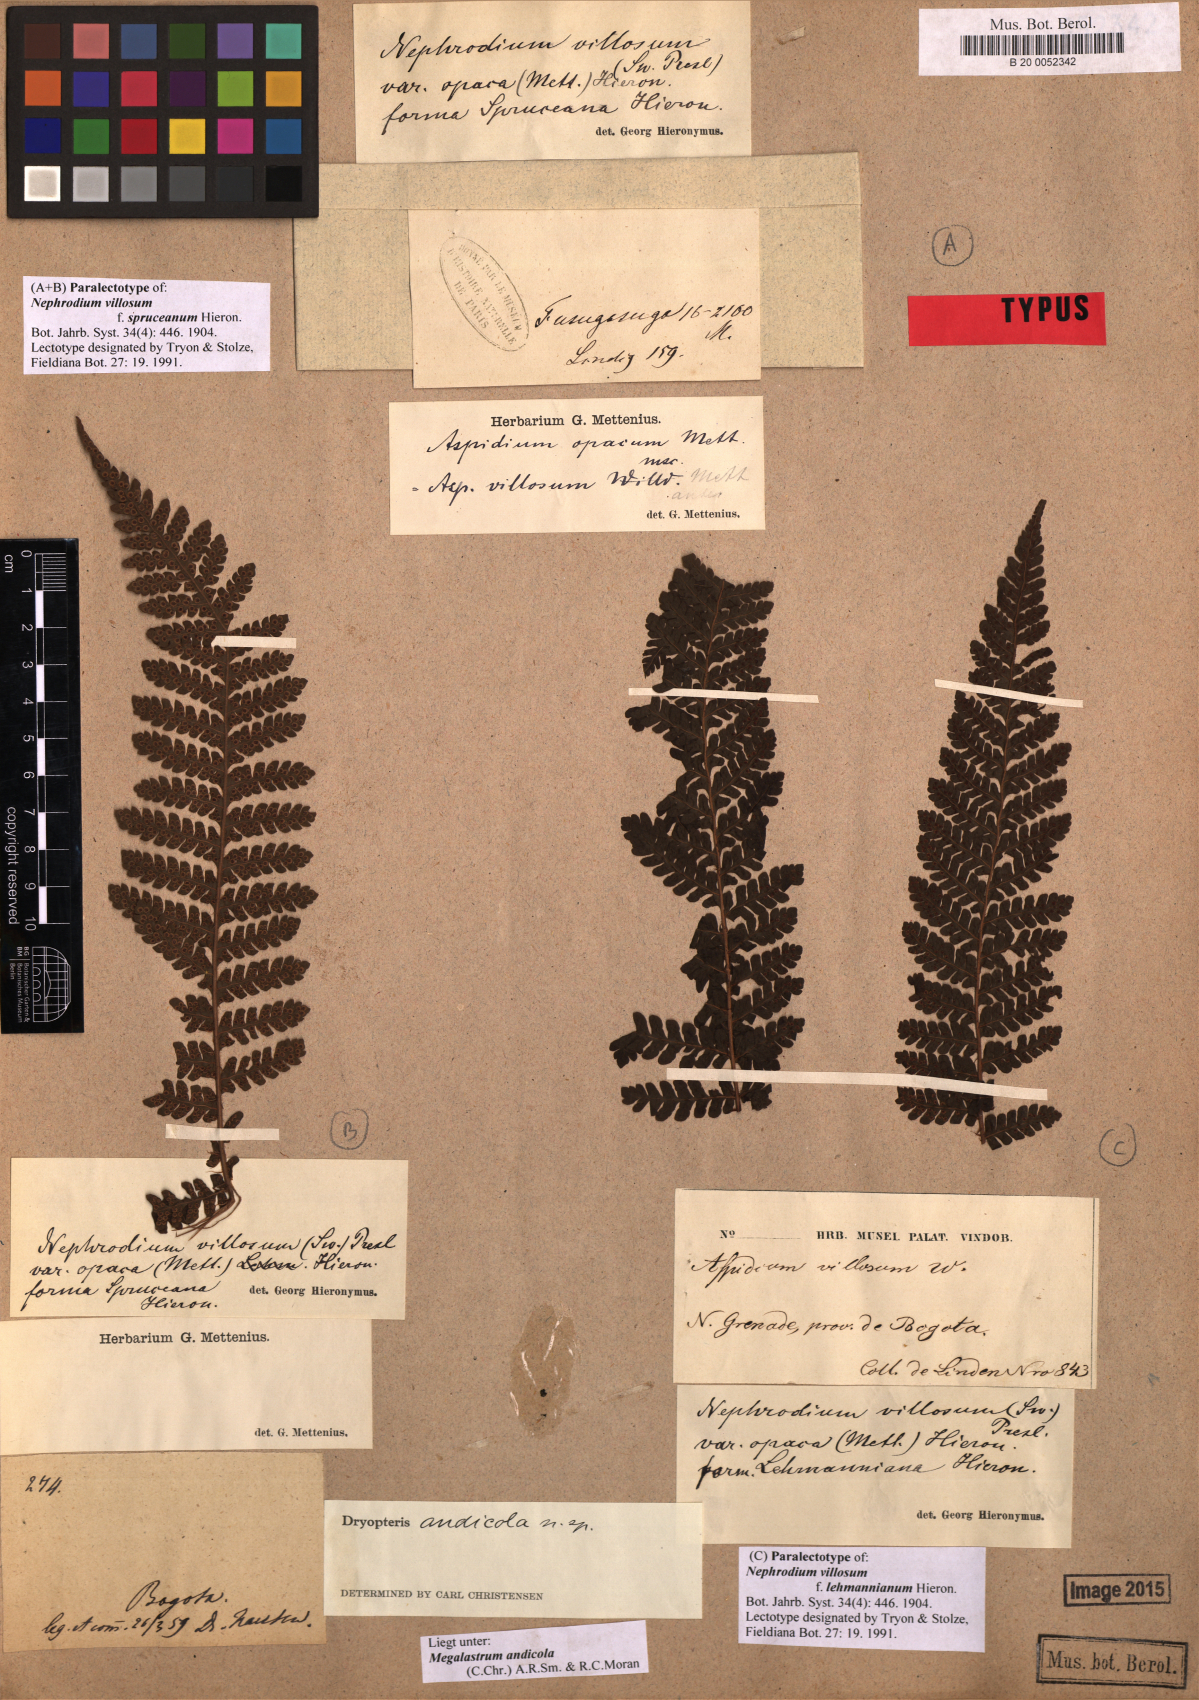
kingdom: Plantae
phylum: Tracheophyta
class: Polypodiopsida
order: Polypodiales
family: Dryopteridaceae
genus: Megalastrum
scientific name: Megalastrum andicola
